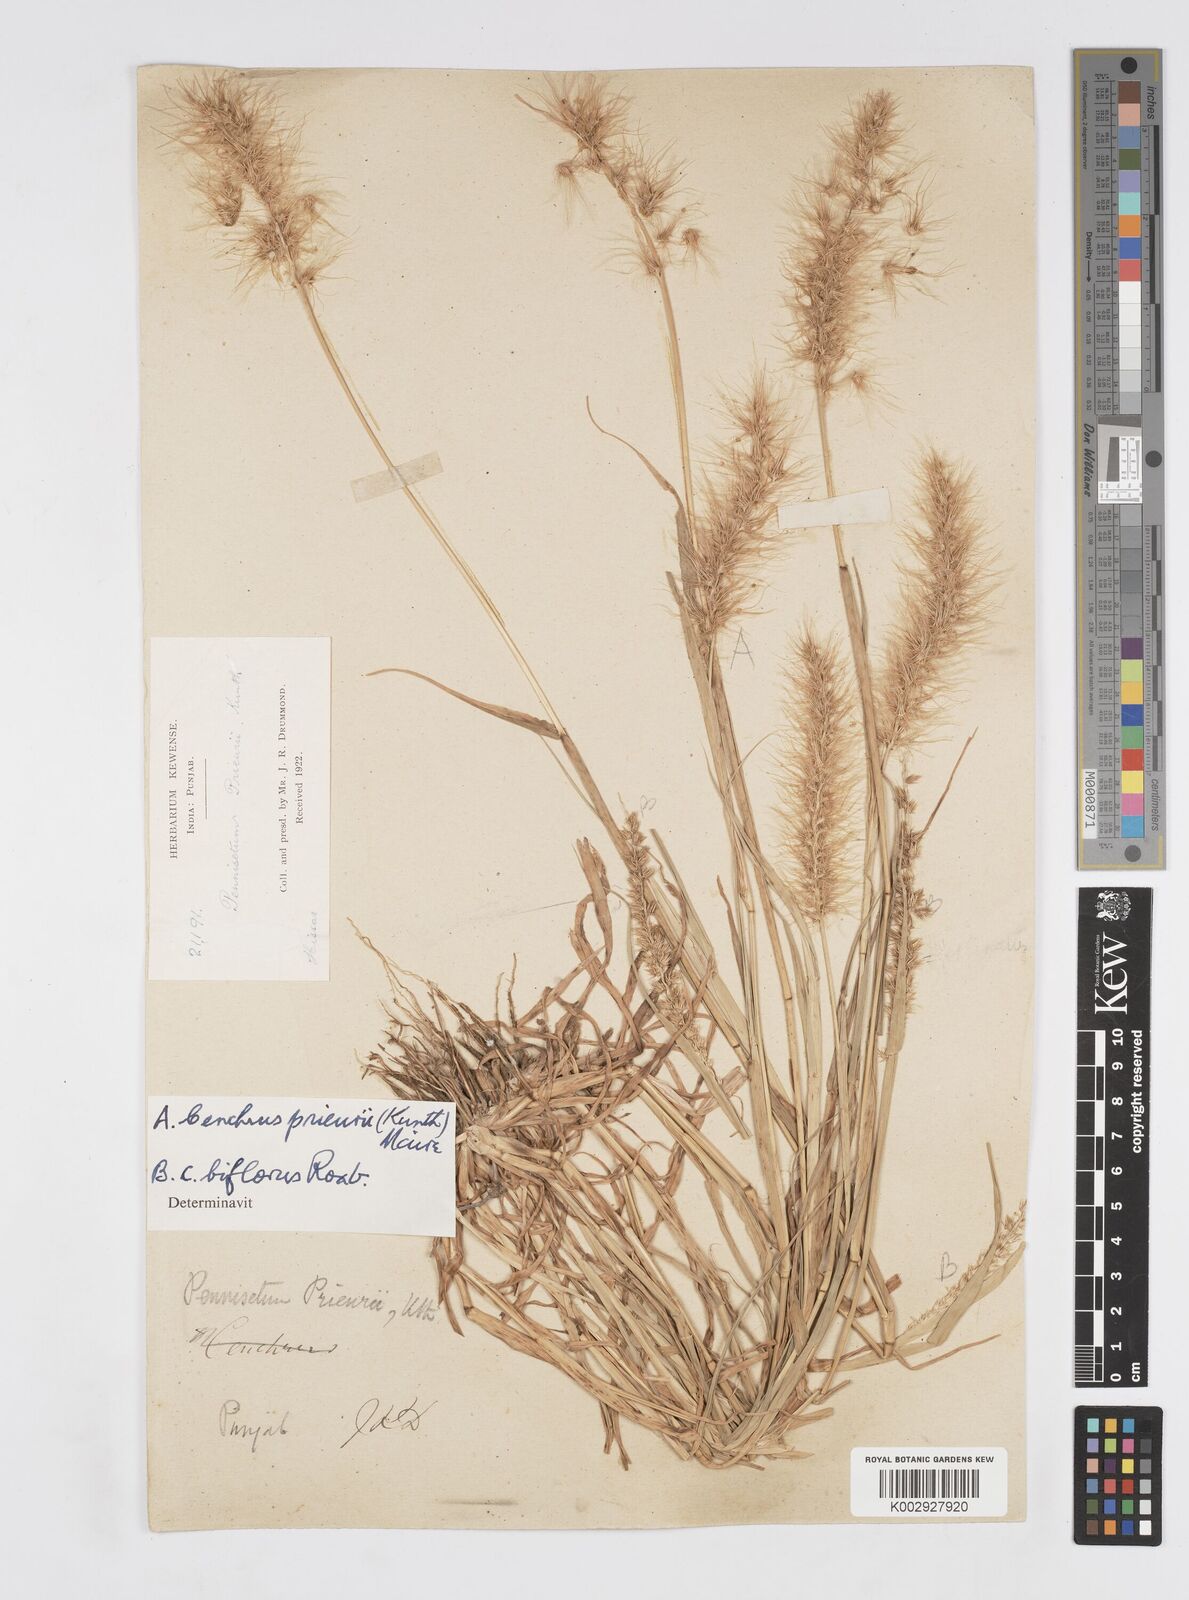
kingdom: Plantae
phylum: Tracheophyta
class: Liliopsida
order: Poales
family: Poaceae
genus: Cenchrus
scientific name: Cenchrus prieurii
